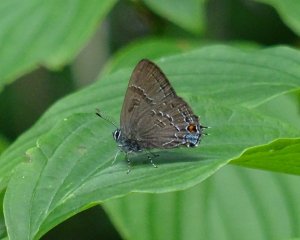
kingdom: Animalia
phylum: Arthropoda
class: Insecta
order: Lepidoptera
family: Lycaenidae
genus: Satyrium
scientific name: Satyrium calanus
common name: Banded Hairstreak
